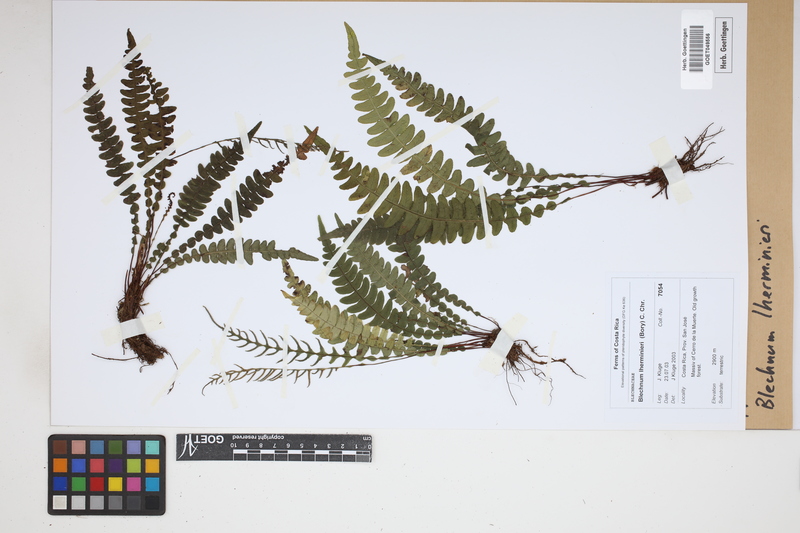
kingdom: Plantae
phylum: Tracheophyta
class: Polypodiopsida
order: Polypodiales
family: Blechnaceae
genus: Austroblechnum
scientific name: Austroblechnum lherminieri
